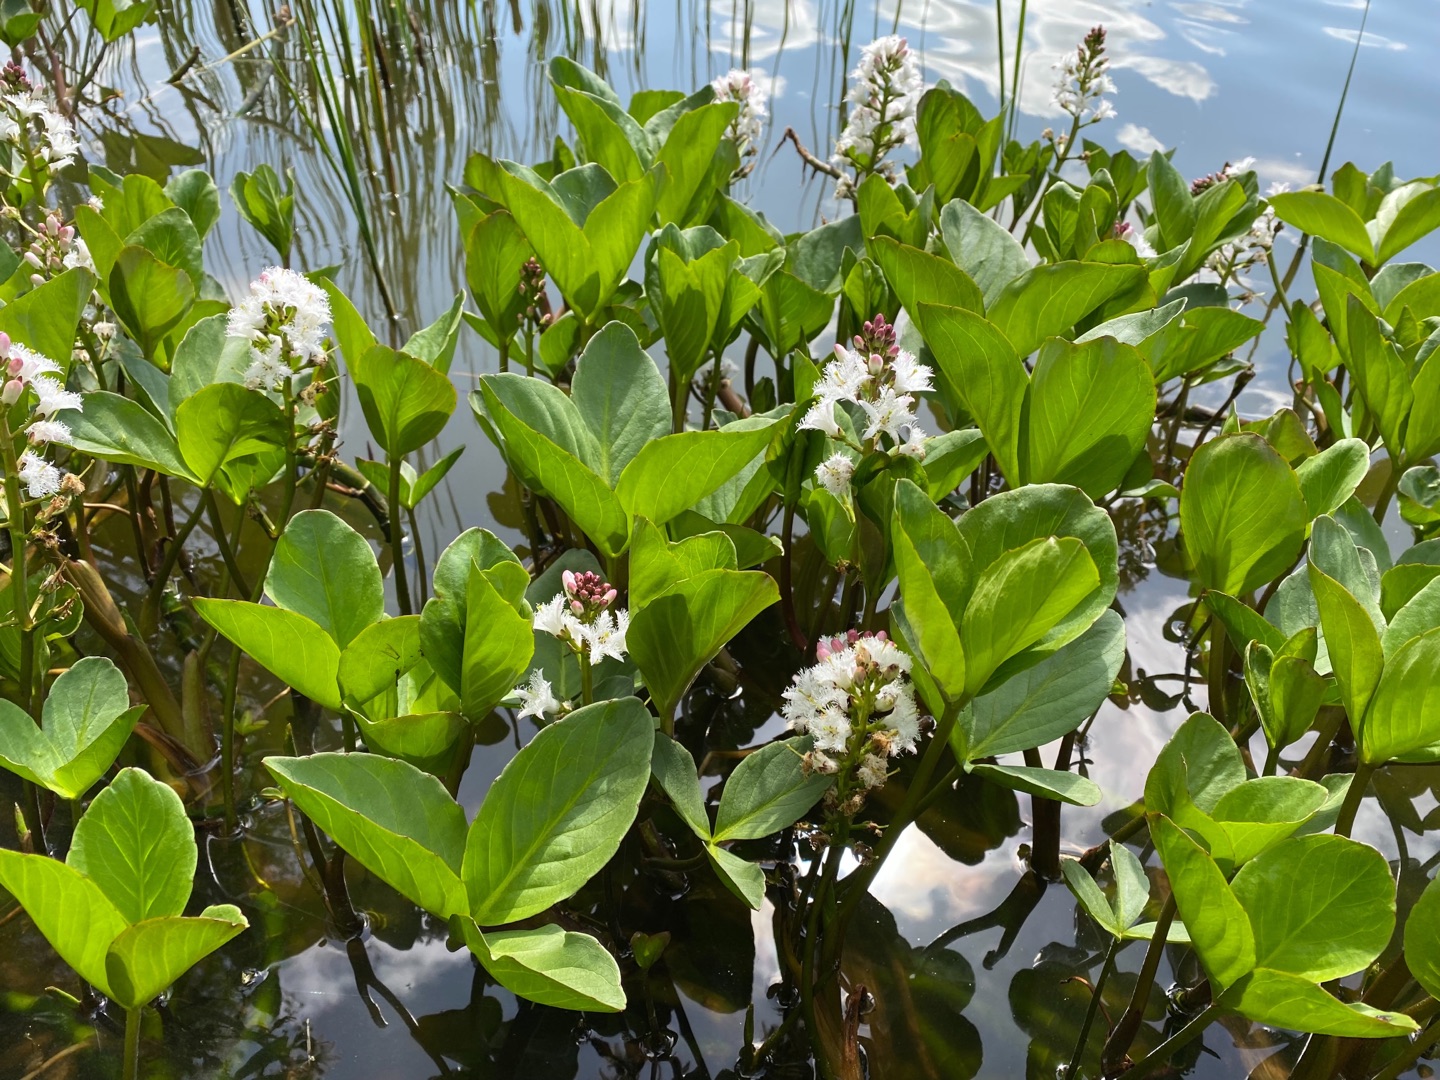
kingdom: Plantae
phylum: Tracheophyta
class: Magnoliopsida
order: Asterales
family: Menyanthaceae
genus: Menyanthes
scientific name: Menyanthes trifoliata
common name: Bukkeblad
